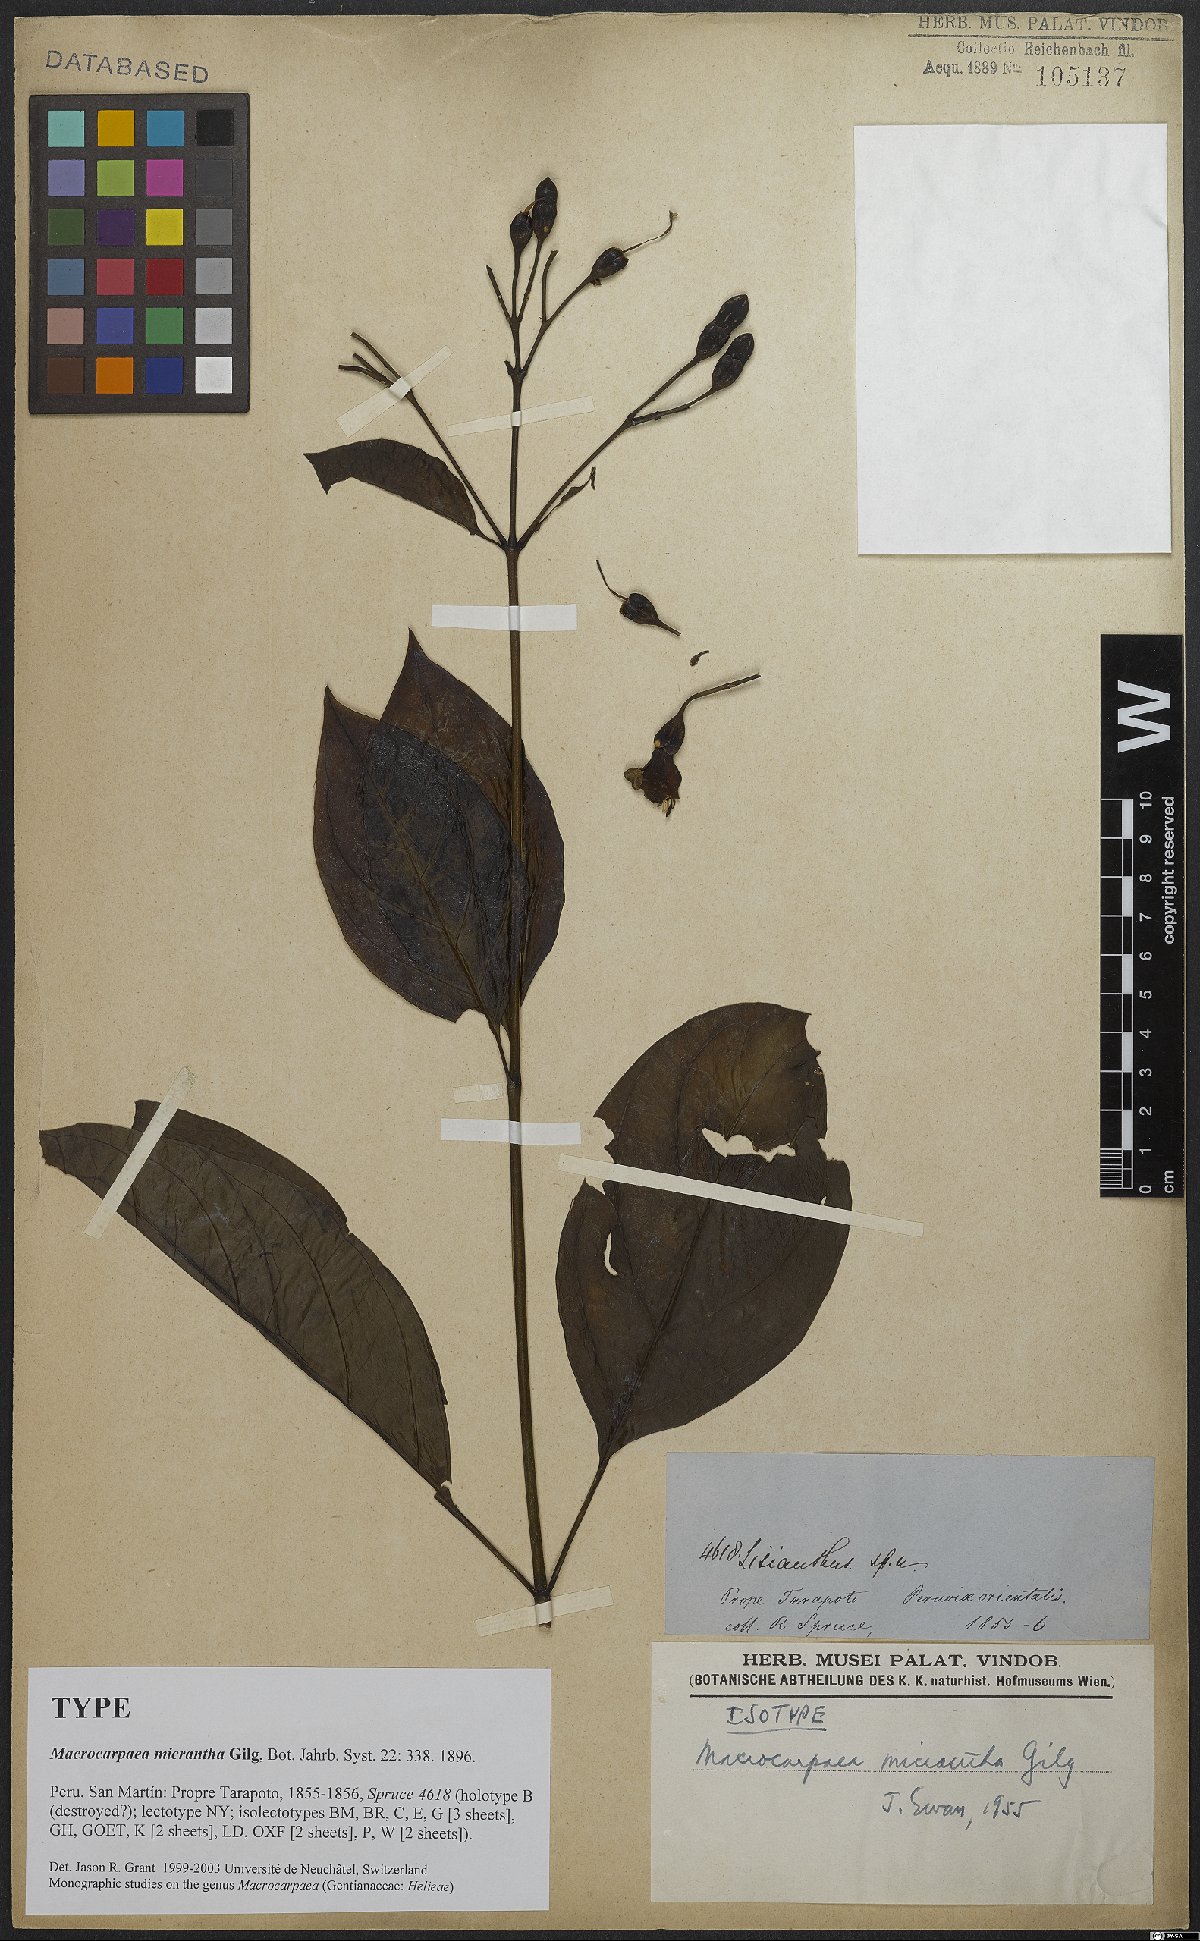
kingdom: Plantae
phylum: Tracheophyta
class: Magnoliopsida
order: Gentianales
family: Gentianaceae
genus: Macrocarpaea
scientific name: Macrocarpaea micrantha
